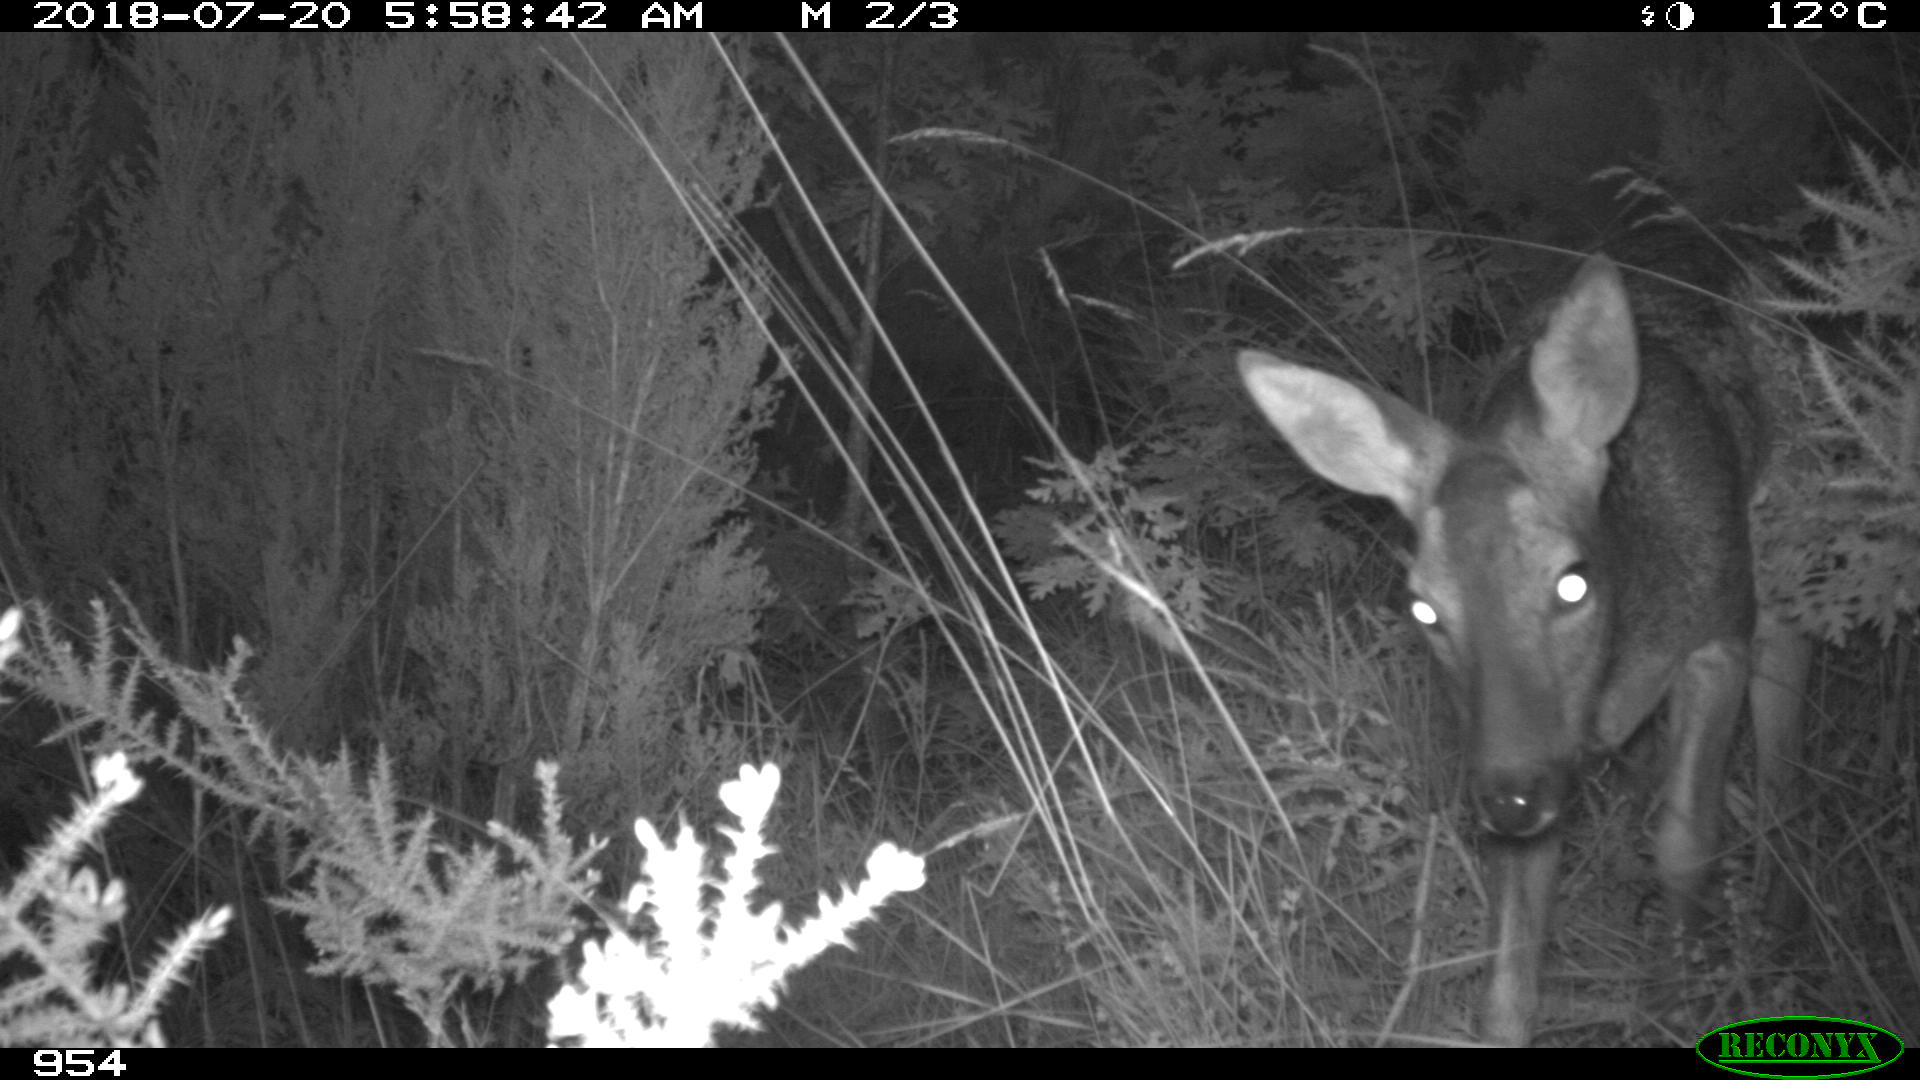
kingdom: Animalia
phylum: Chordata
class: Mammalia
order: Artiodactyla
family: Cervidae
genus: Capreolus
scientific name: Capreolus capreolus
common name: Western roe deer
